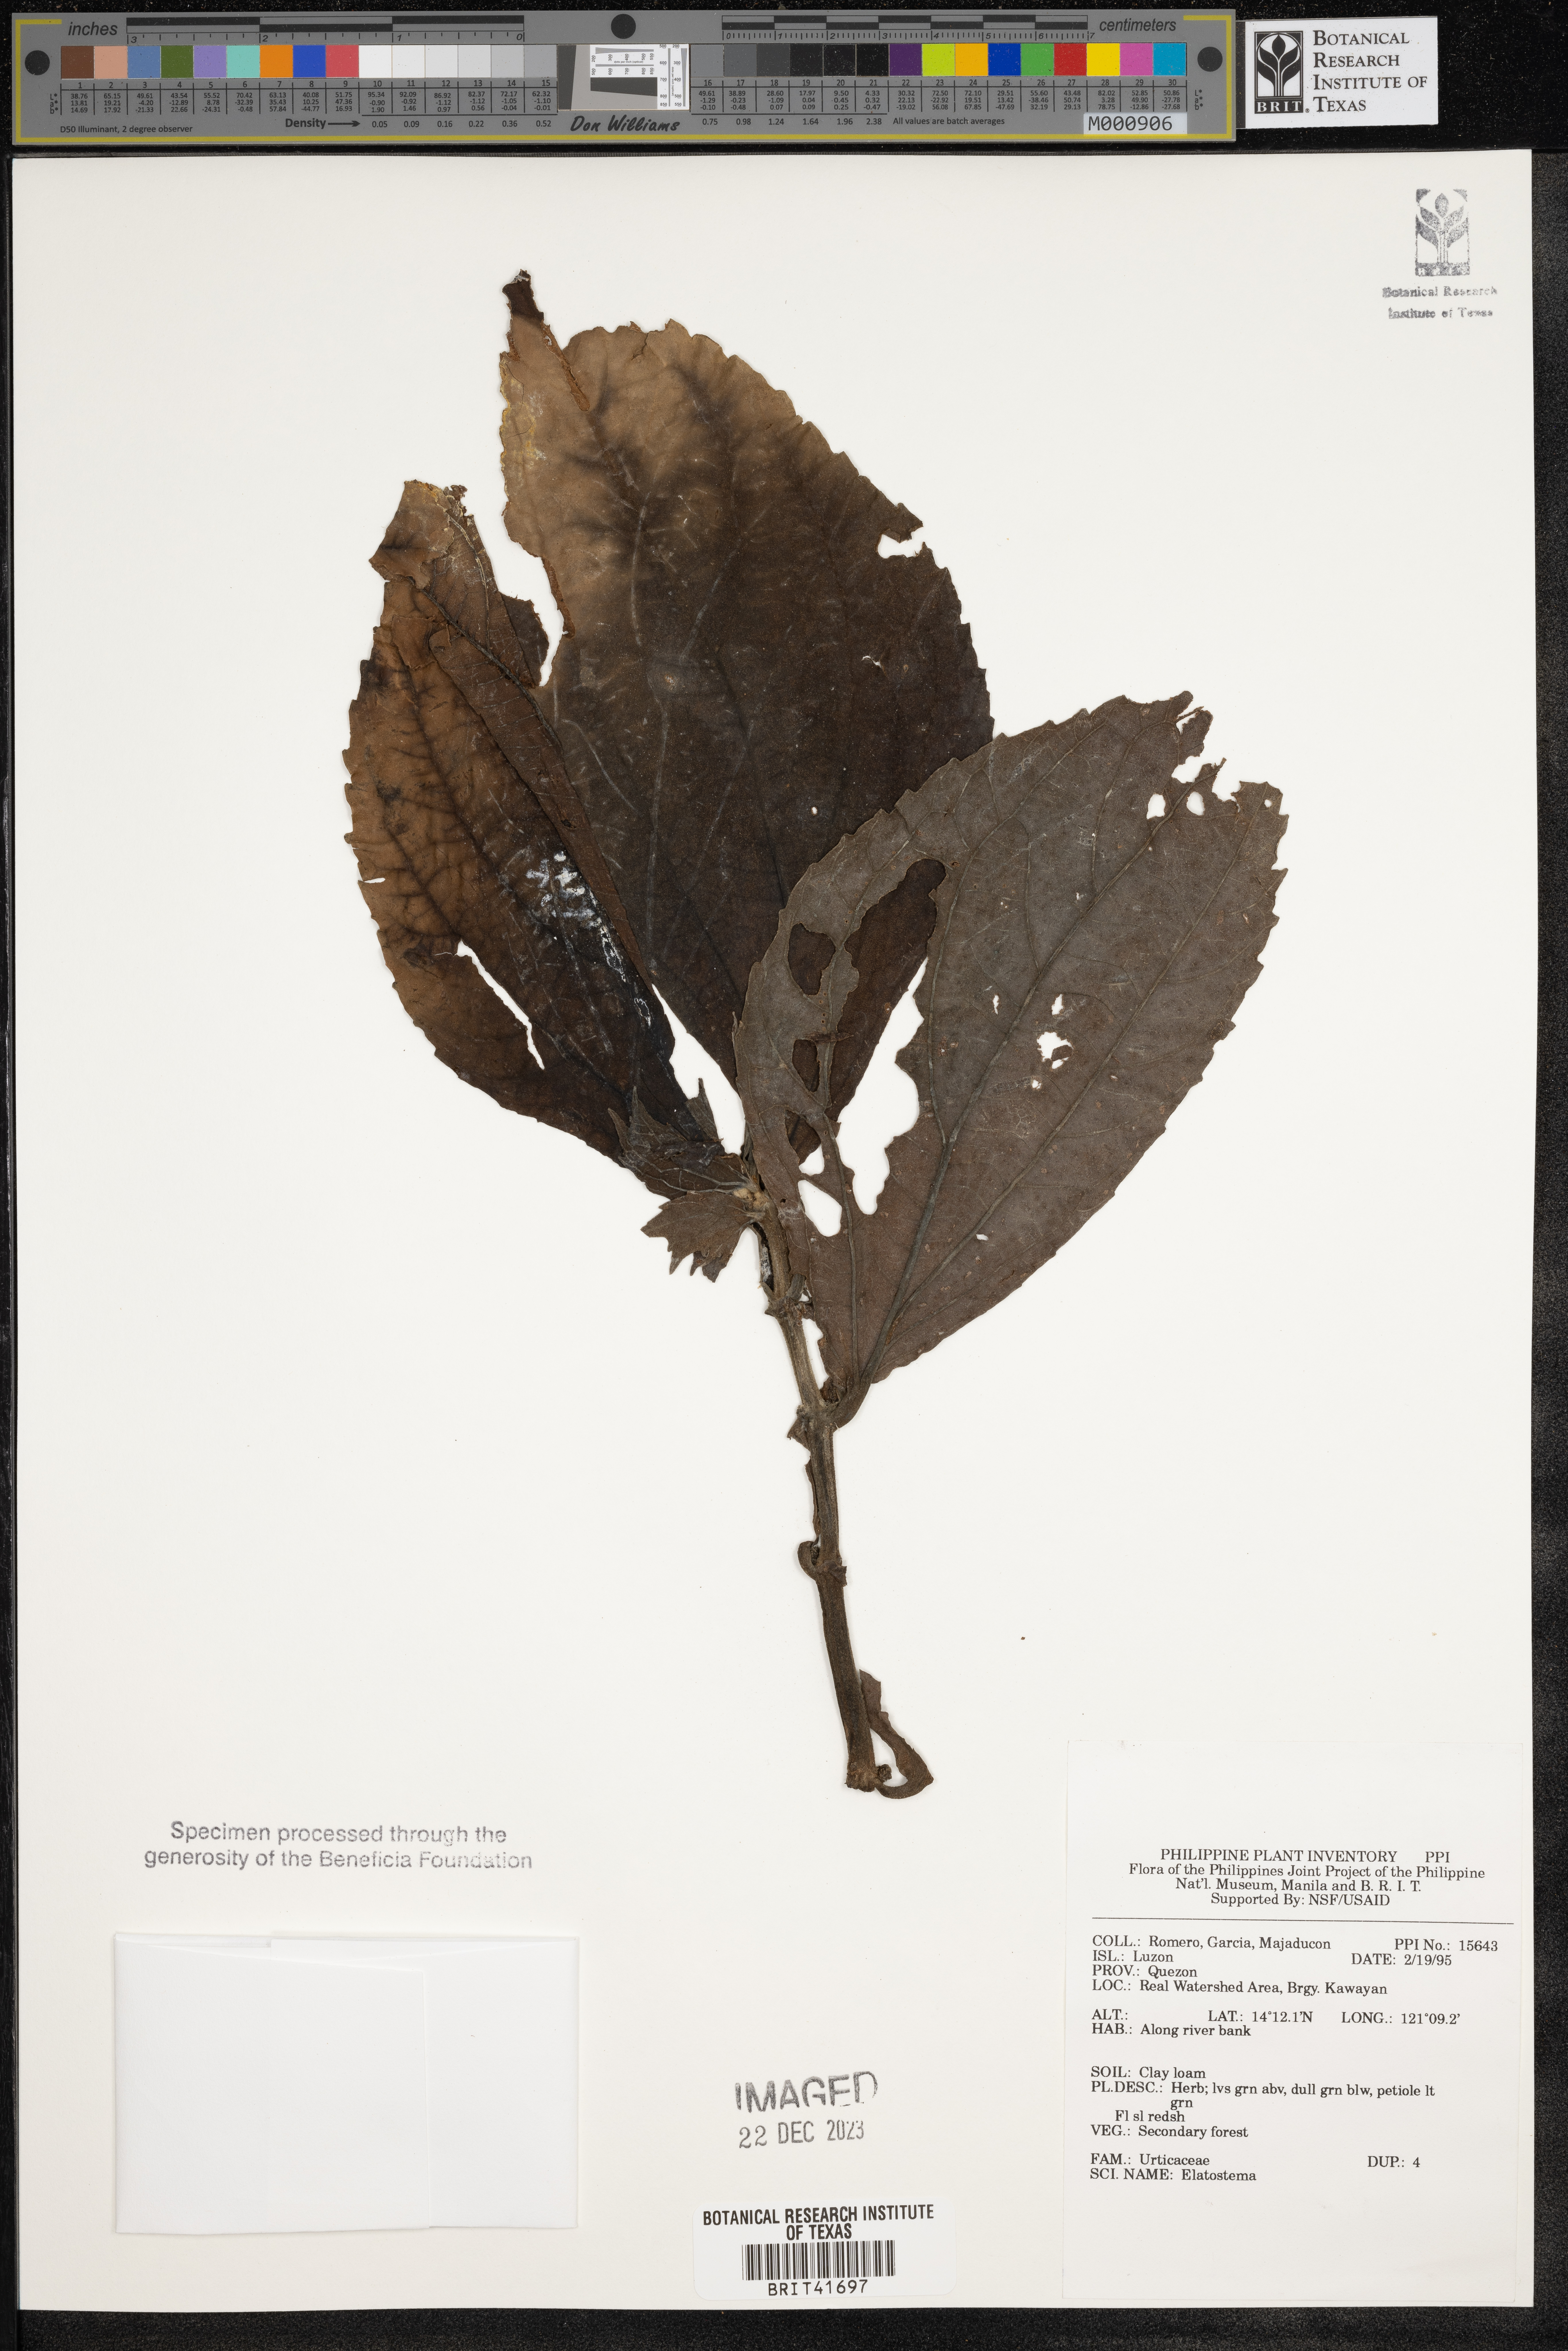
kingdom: Plantae
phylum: Tracheophyta
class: Magnoliopsida
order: Rosales
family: Urticaceae
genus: Elatostema
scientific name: Elatostema
